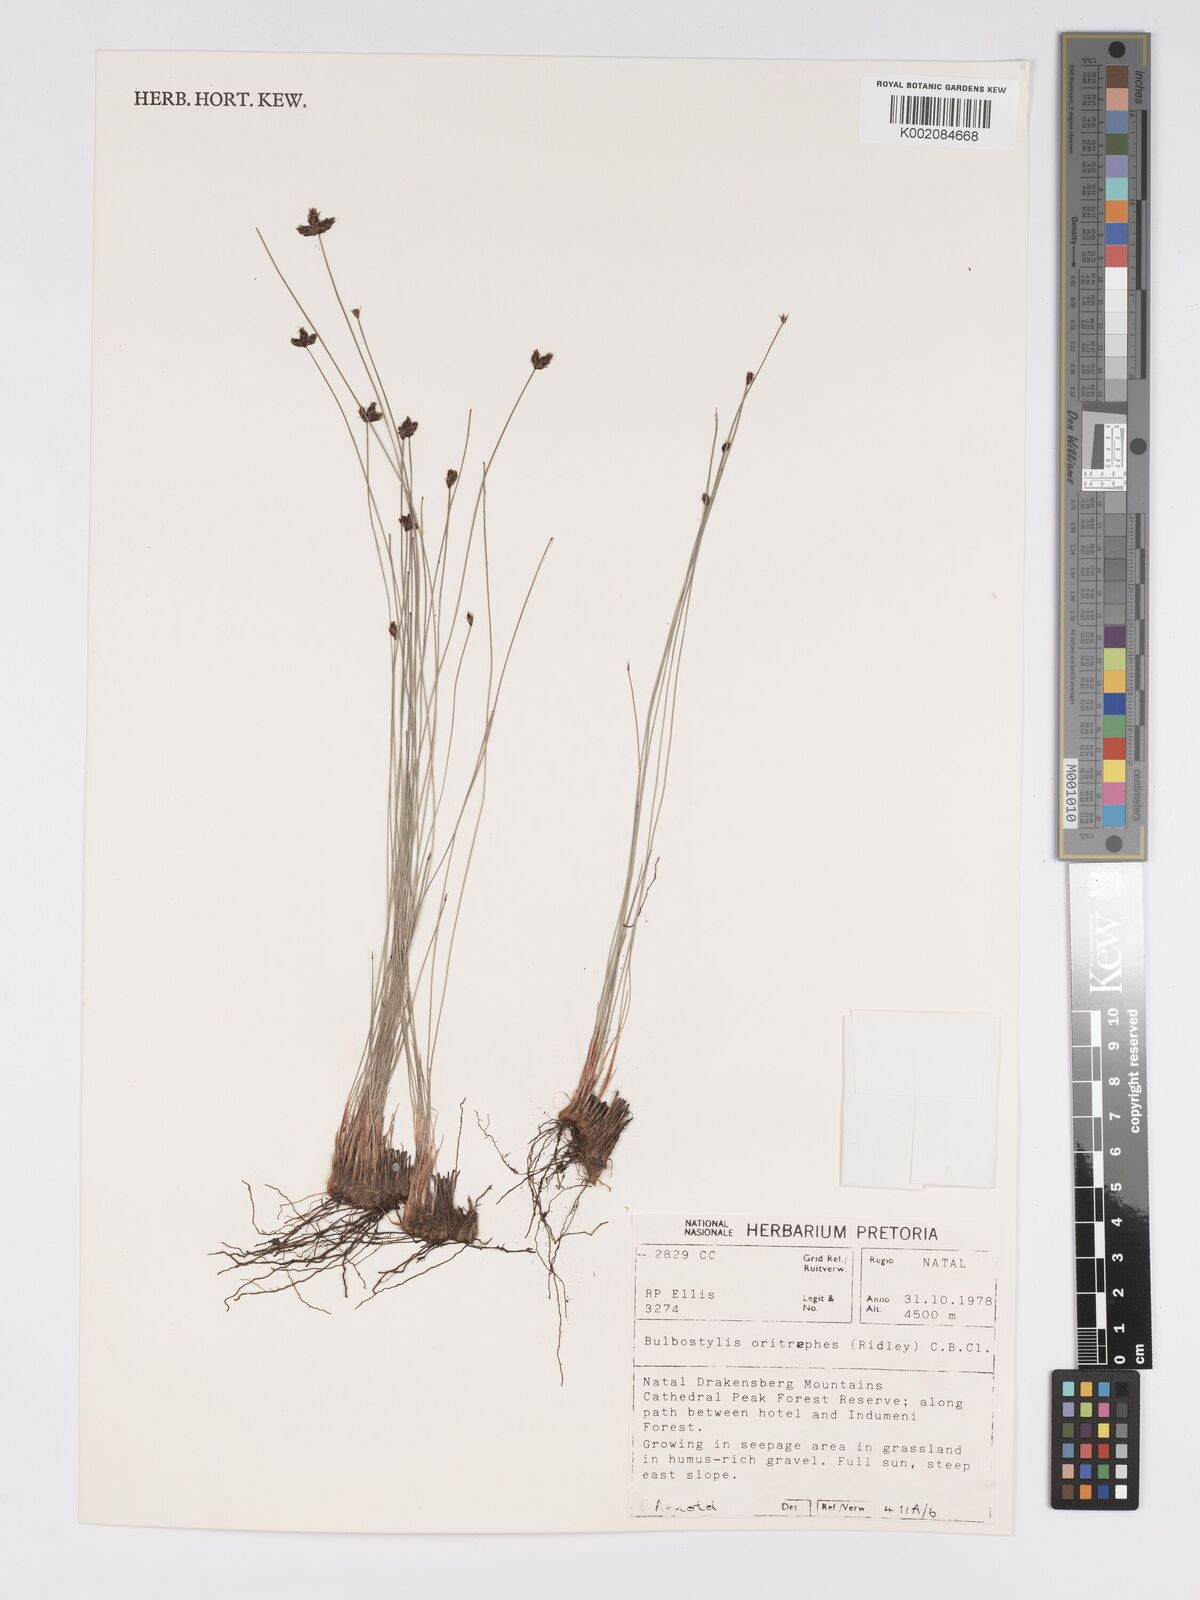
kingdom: Plantae
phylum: Tracheophyta
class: Liliopsida
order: Poales
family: Cyperaceae
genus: Bulbostylis
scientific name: Bulbostylis oritrephes
